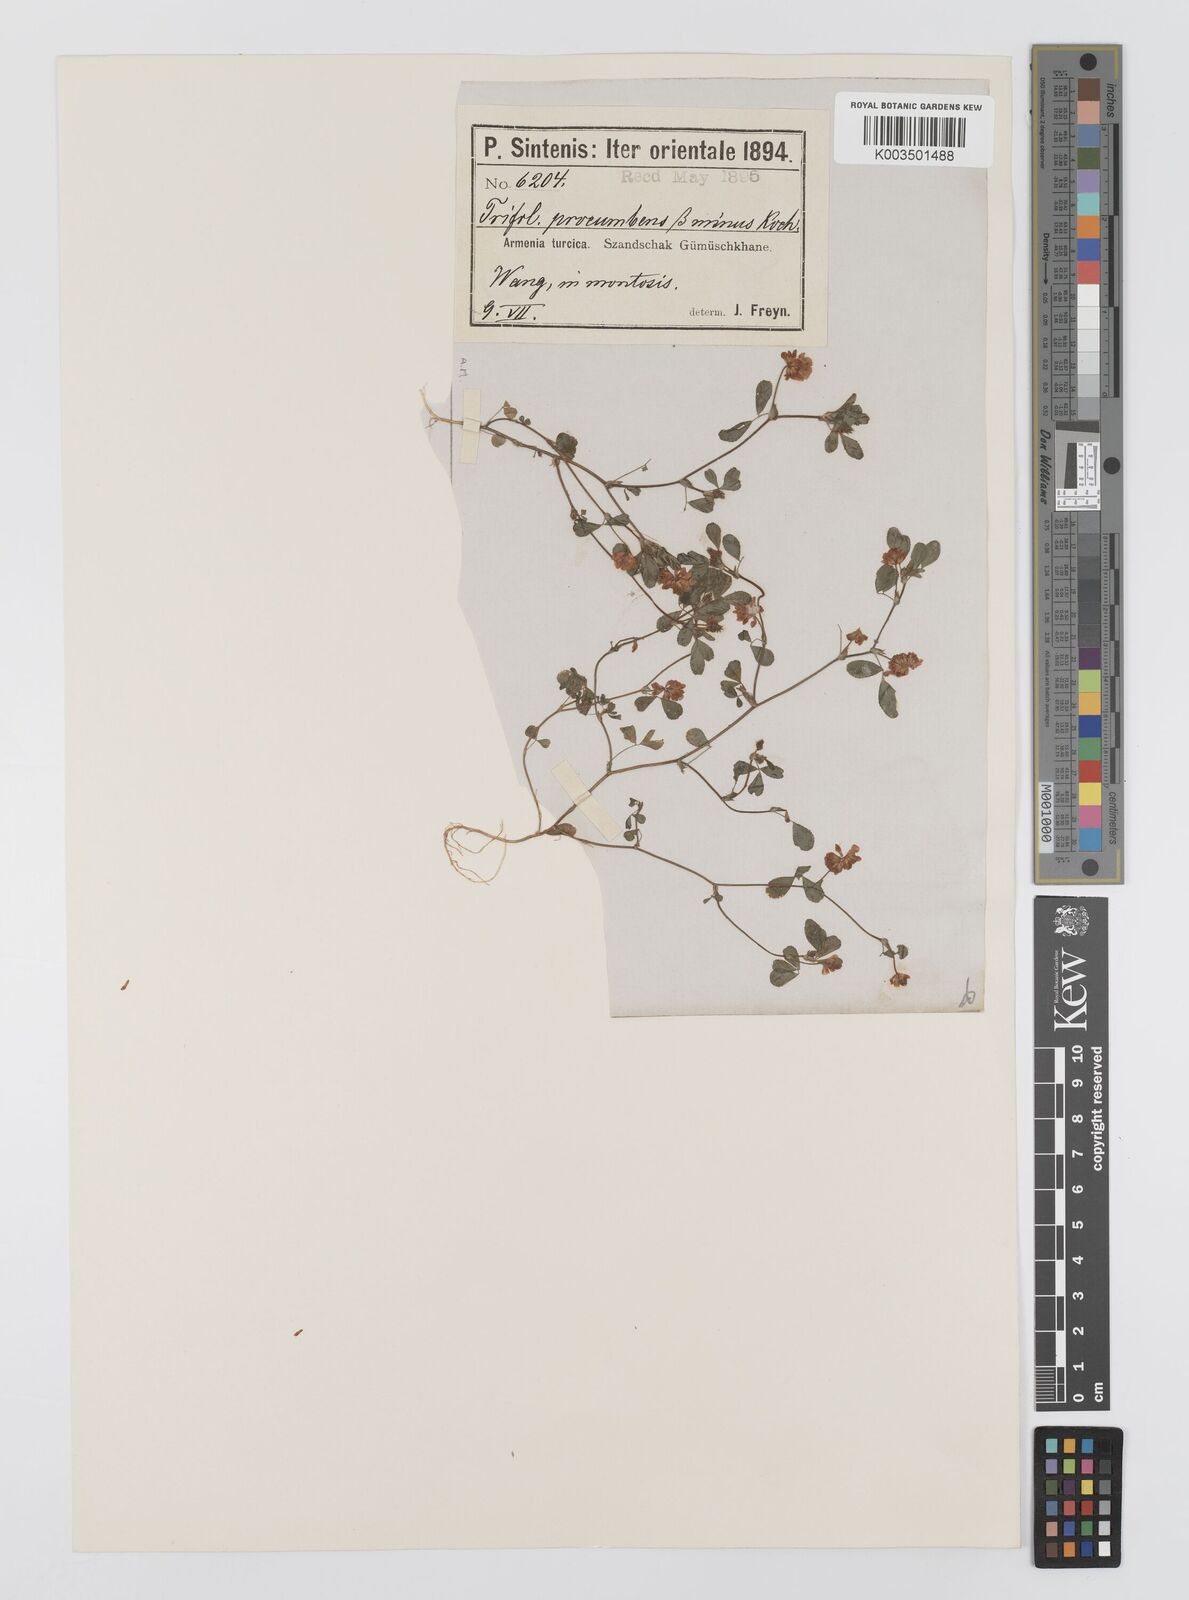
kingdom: Plantae
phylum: Tracheophyta
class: Magnoliopsida
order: Fabales
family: Fabaceae
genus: Trifolium
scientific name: Trifolium campestre
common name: Field clover
